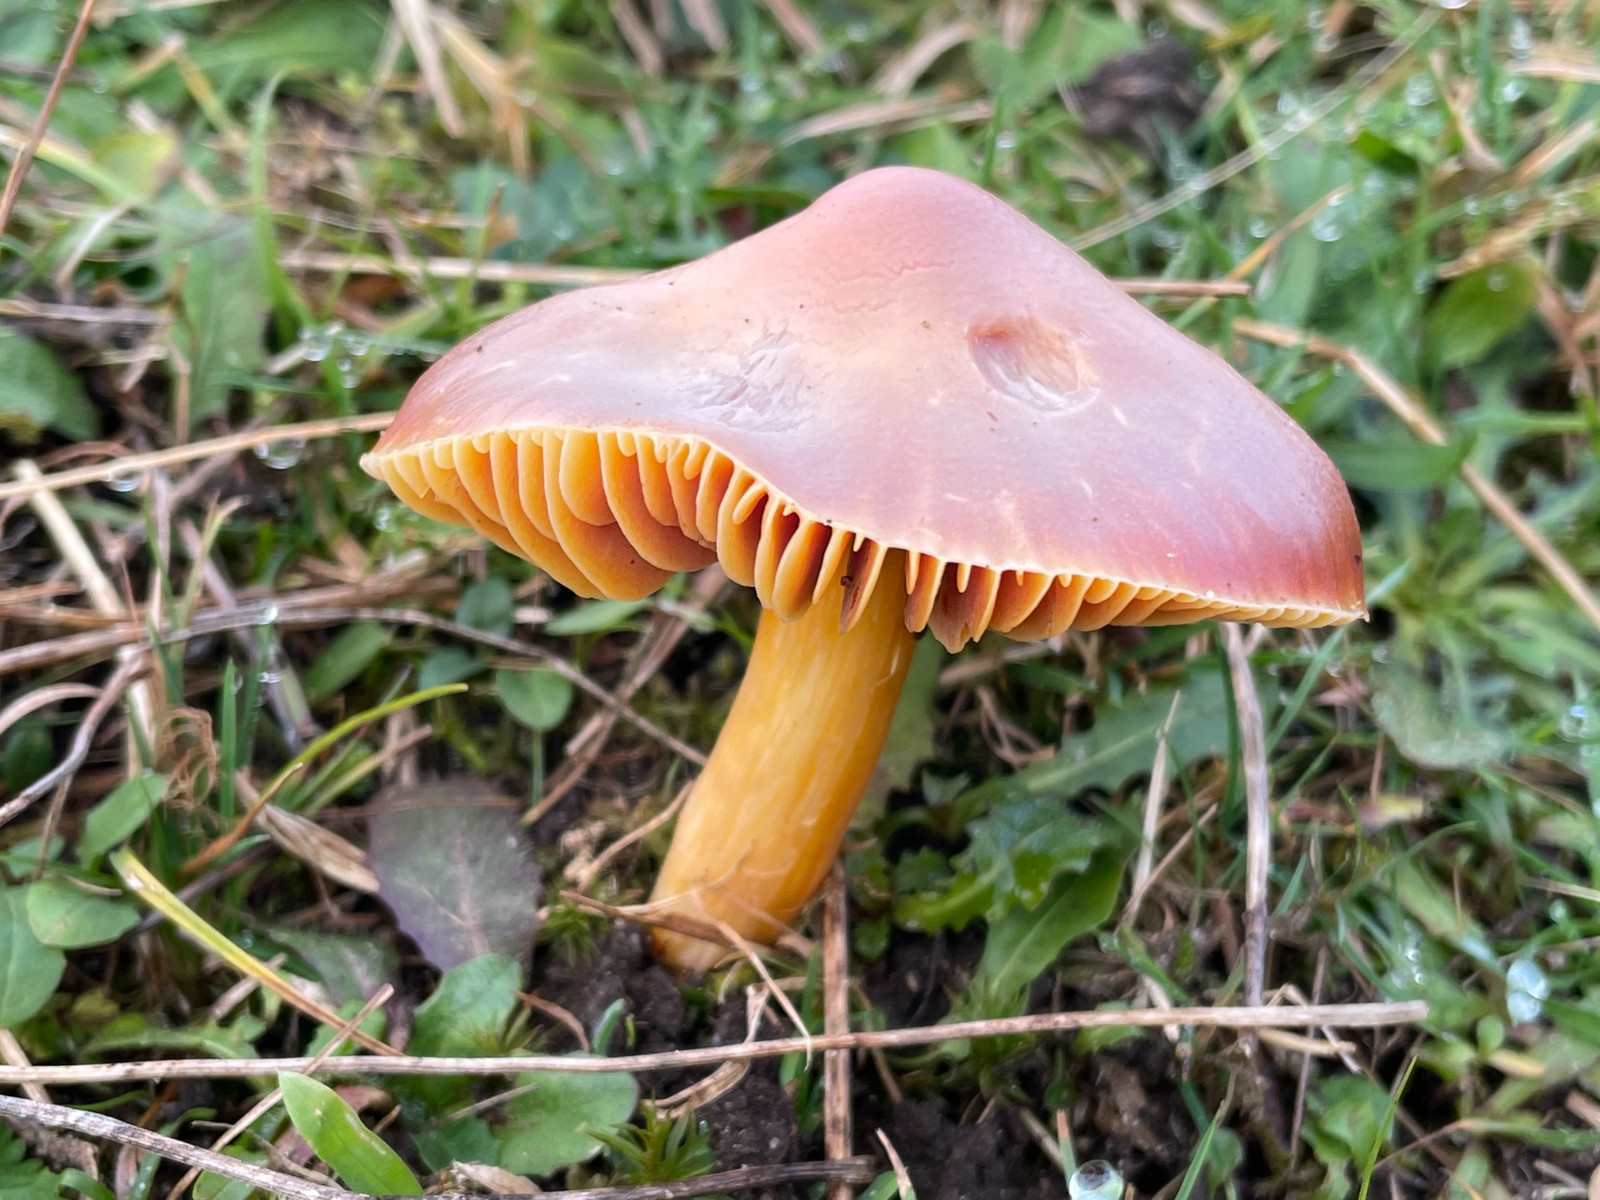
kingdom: Fungi
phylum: Basidiomycota
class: Agaricomycetes
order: Agaricales
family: Hygrophoraceae
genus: Hygrocybe
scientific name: Hygrocybe punicea
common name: skarlagen-vokshat
